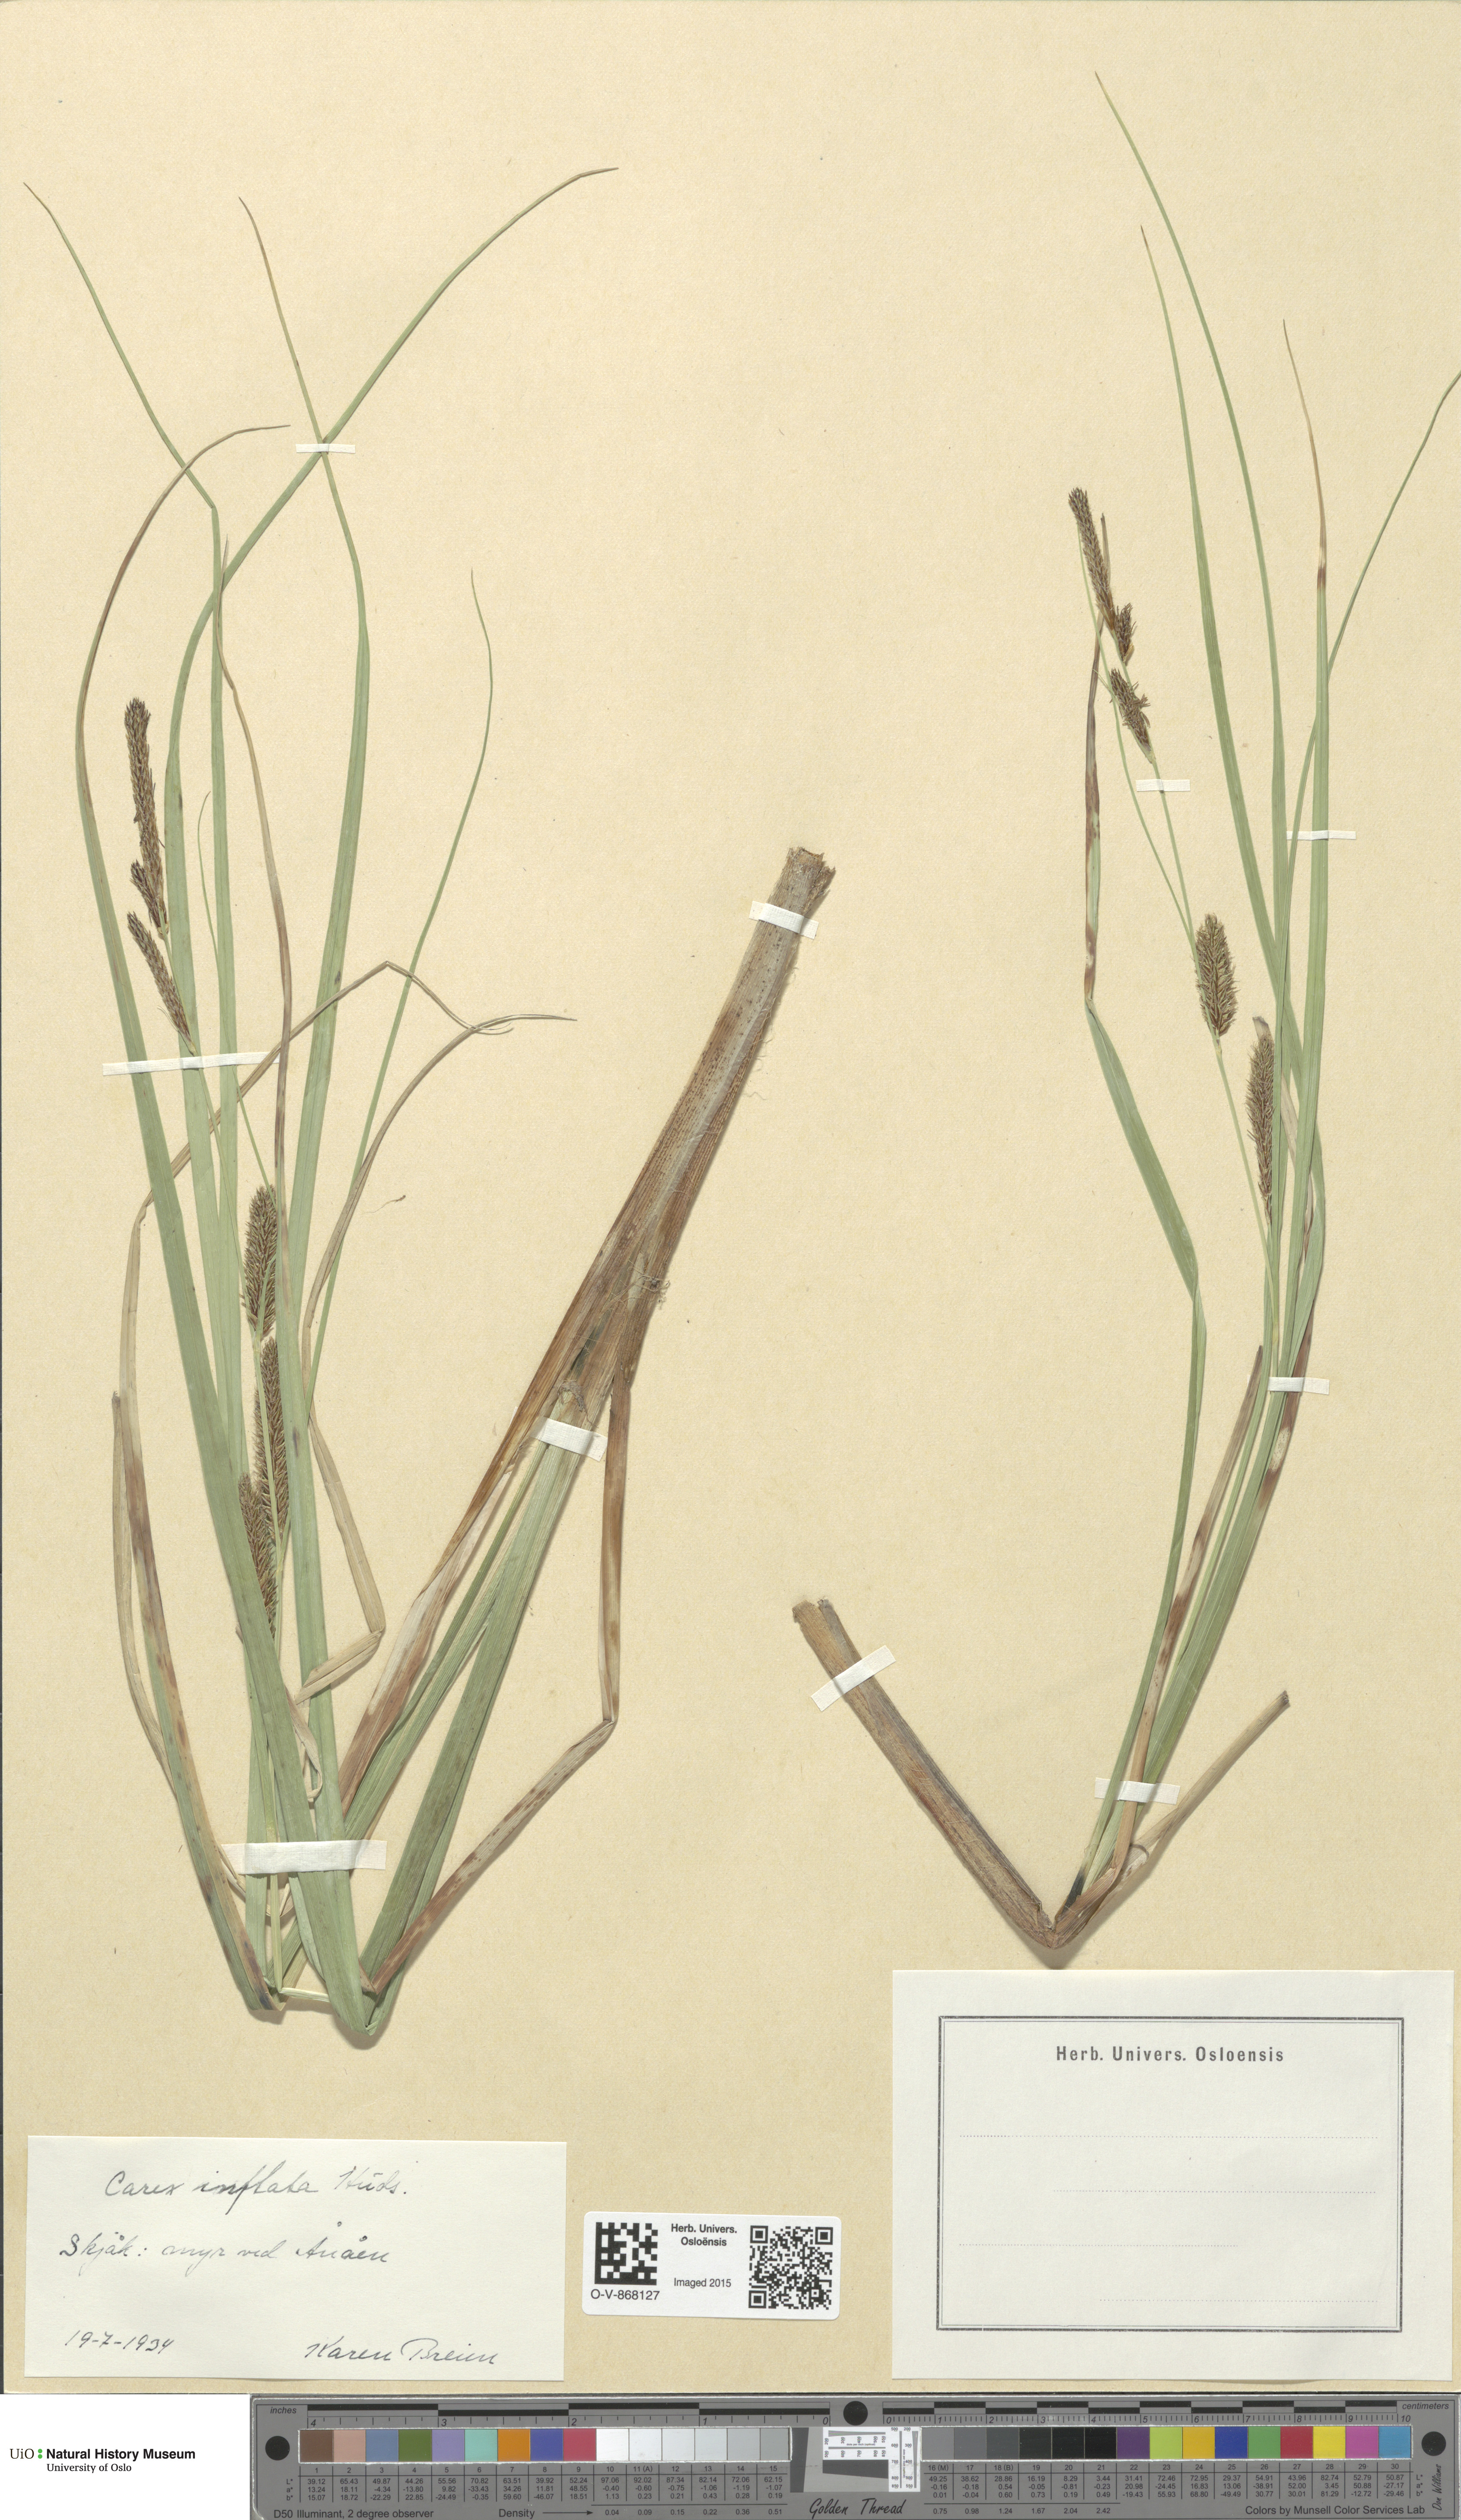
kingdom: Plantae
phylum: Tracheophyta
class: Liliopsida
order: Poales
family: Cyperaceae
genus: Carex
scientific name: Carex rostrata
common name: Bottle sedge
